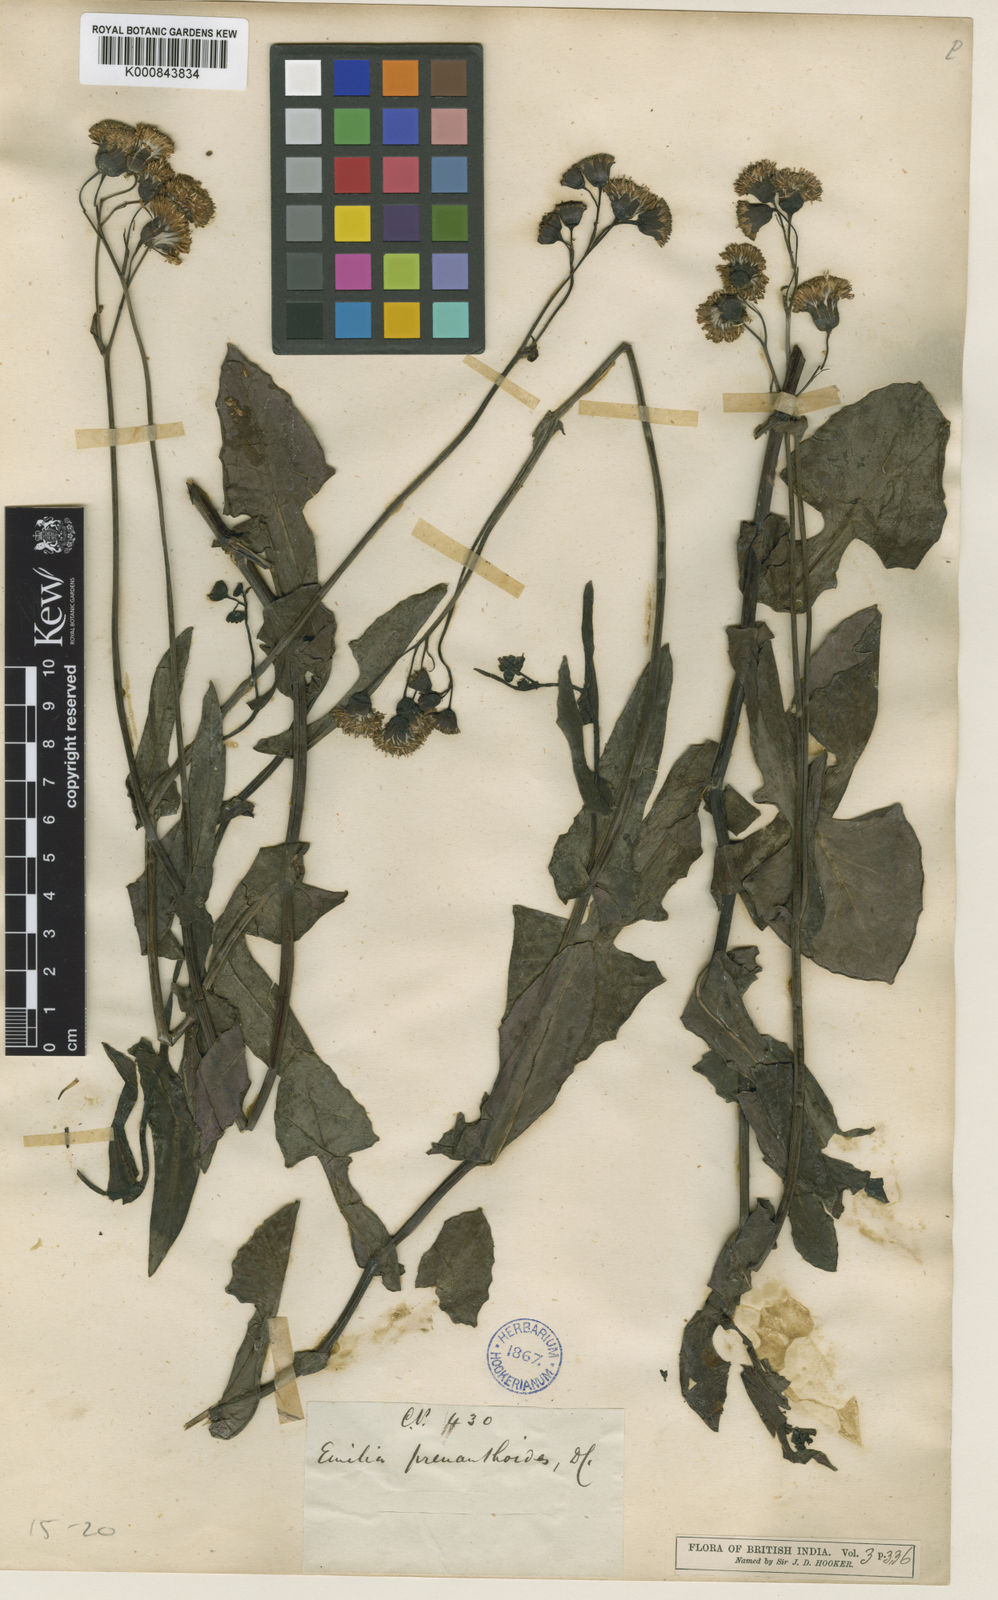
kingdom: Plantae
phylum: Tracheophyta
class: Magnoliopsida
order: Asterales
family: Asteraceae
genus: Emilia
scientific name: Emilia zeylanica
